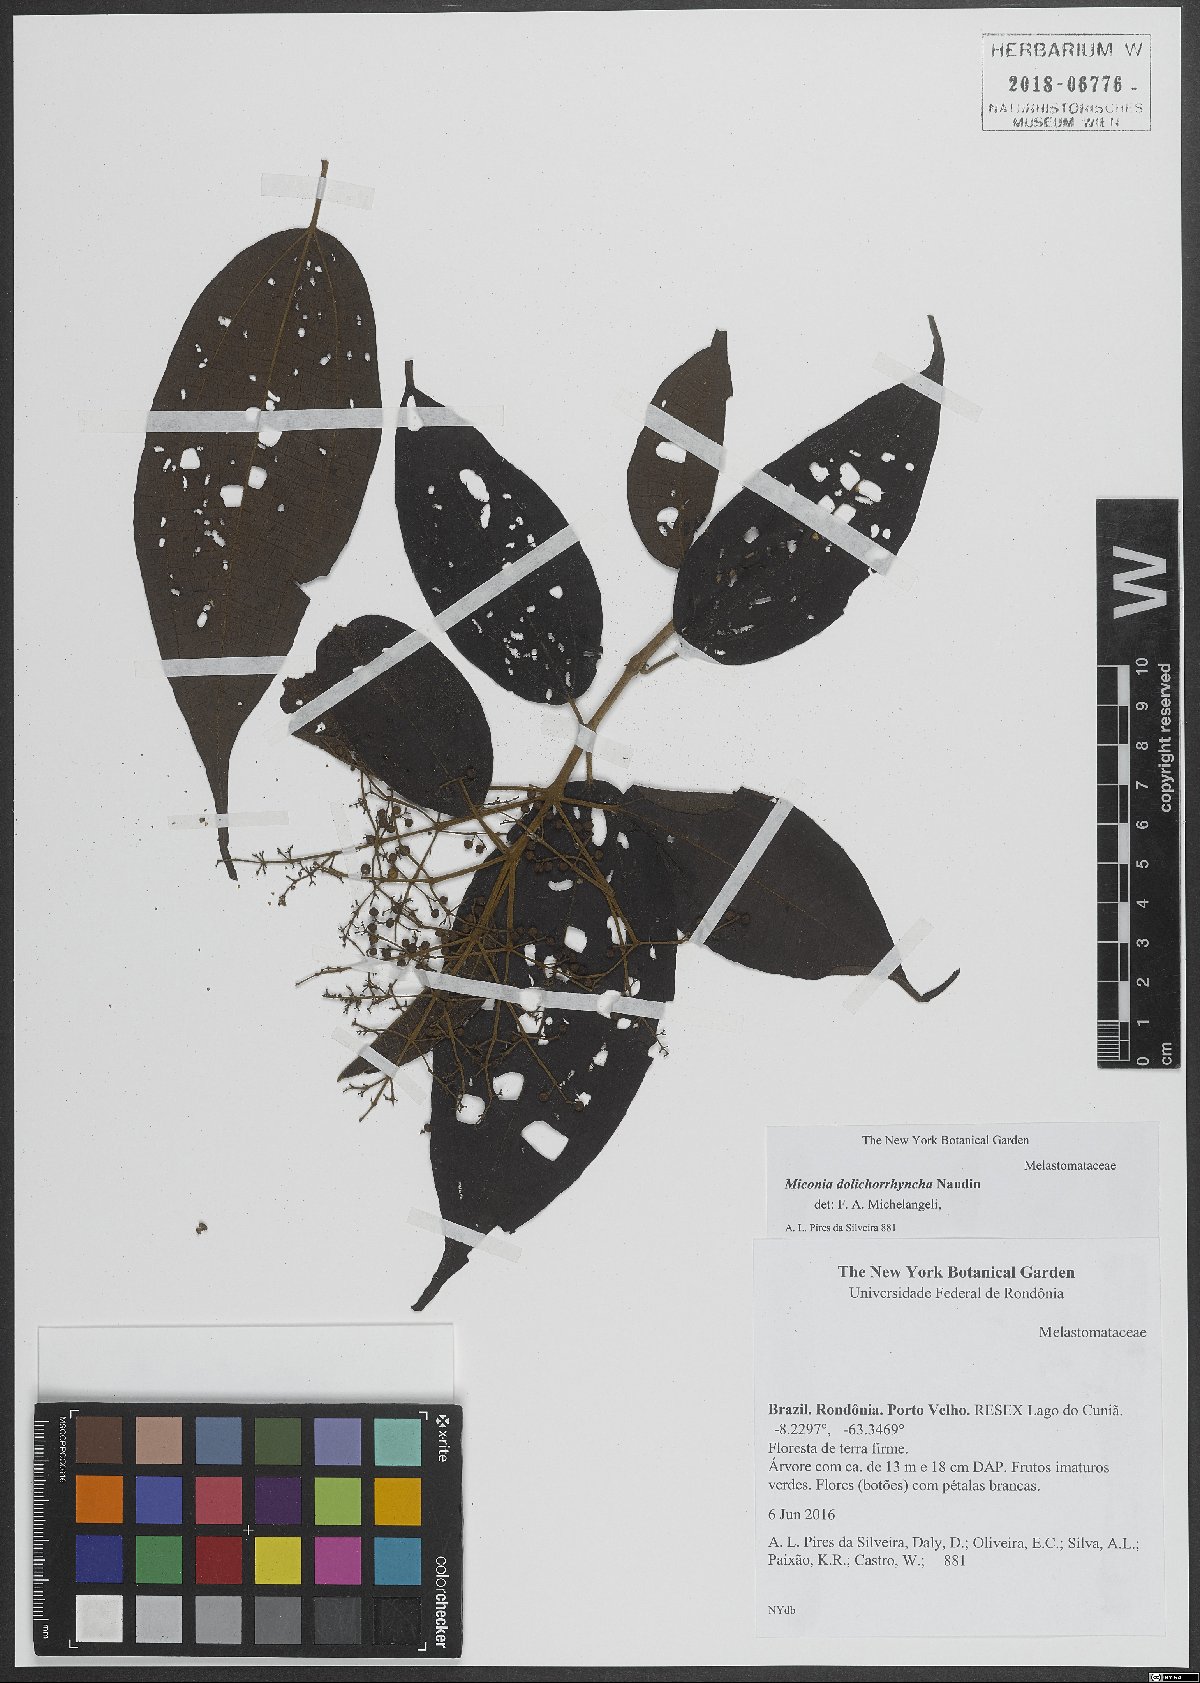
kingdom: Plantae
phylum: Tracheophyta
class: Magnoliopsida
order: Myrtales
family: Melastomataceae
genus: Miconia
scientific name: Miconia dolichorrhyncha
